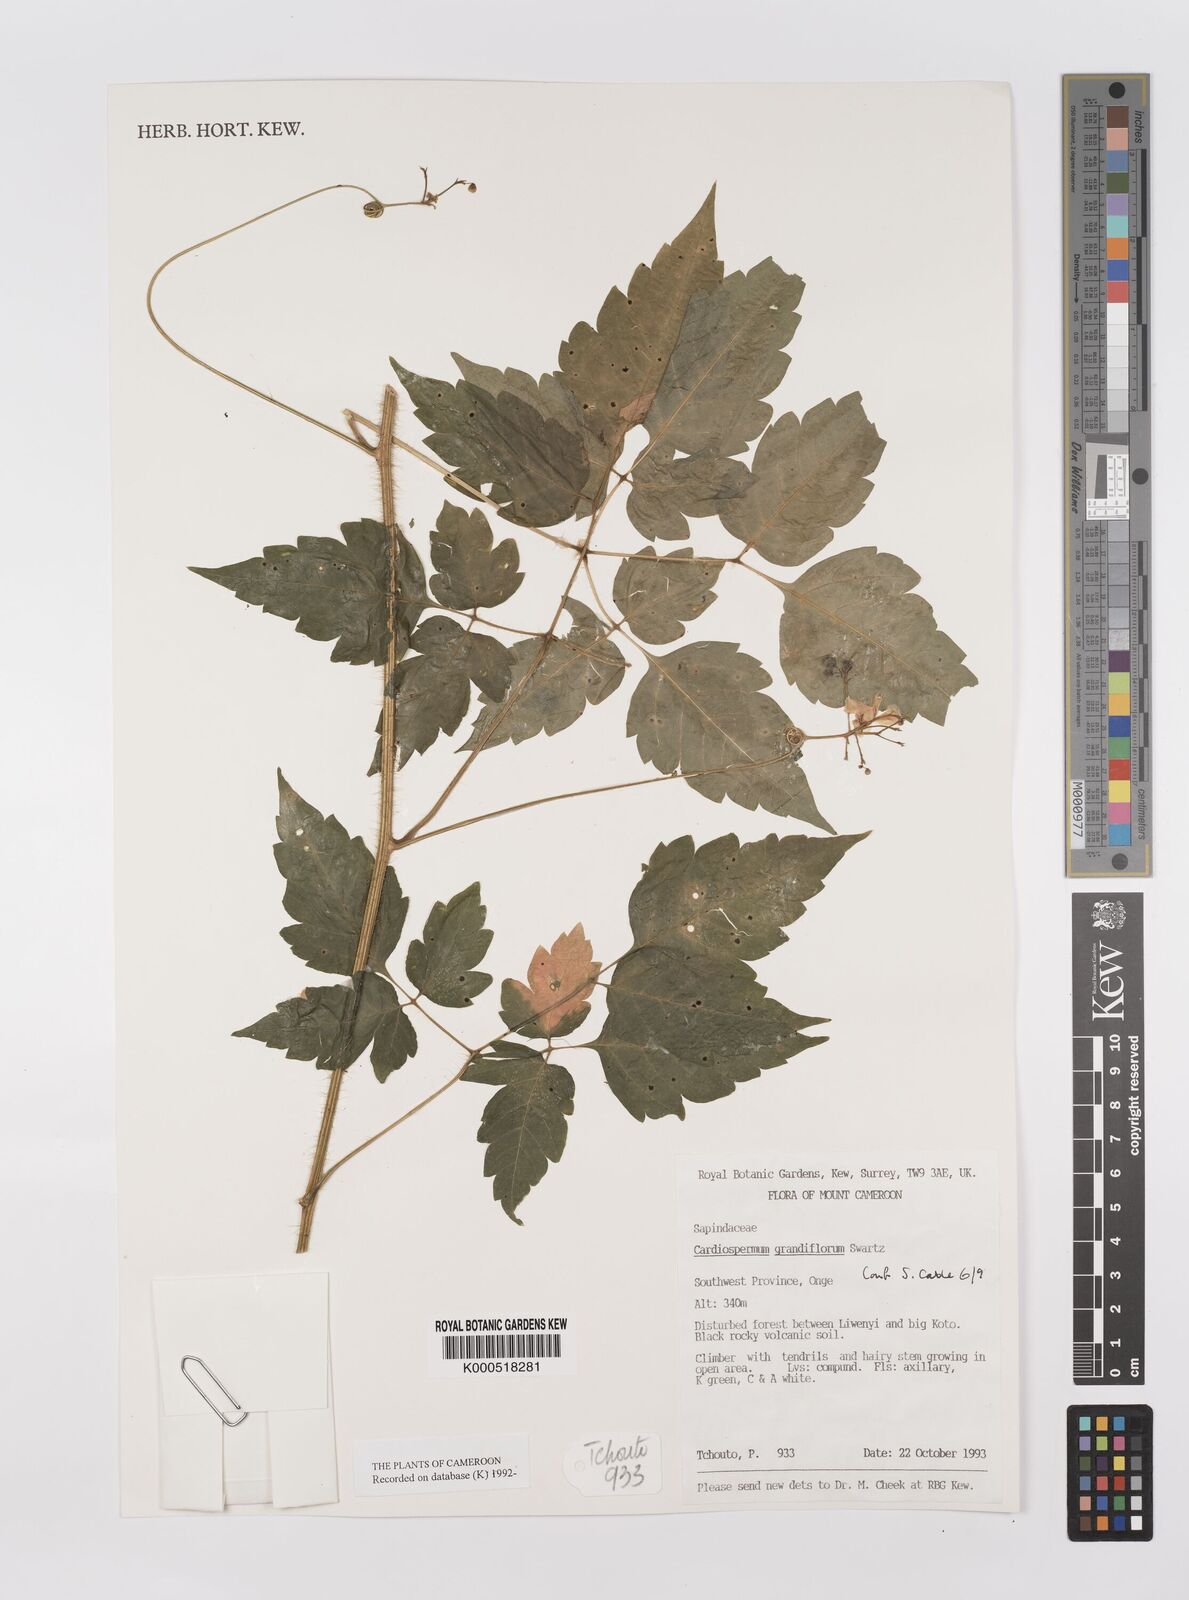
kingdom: Plantae
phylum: Tracheophyta
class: Magnoliopsida
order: Sapindales
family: Sapindaceae
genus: Cardiospermum
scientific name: Cardiospermum grandiflorum
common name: Balloon vine
